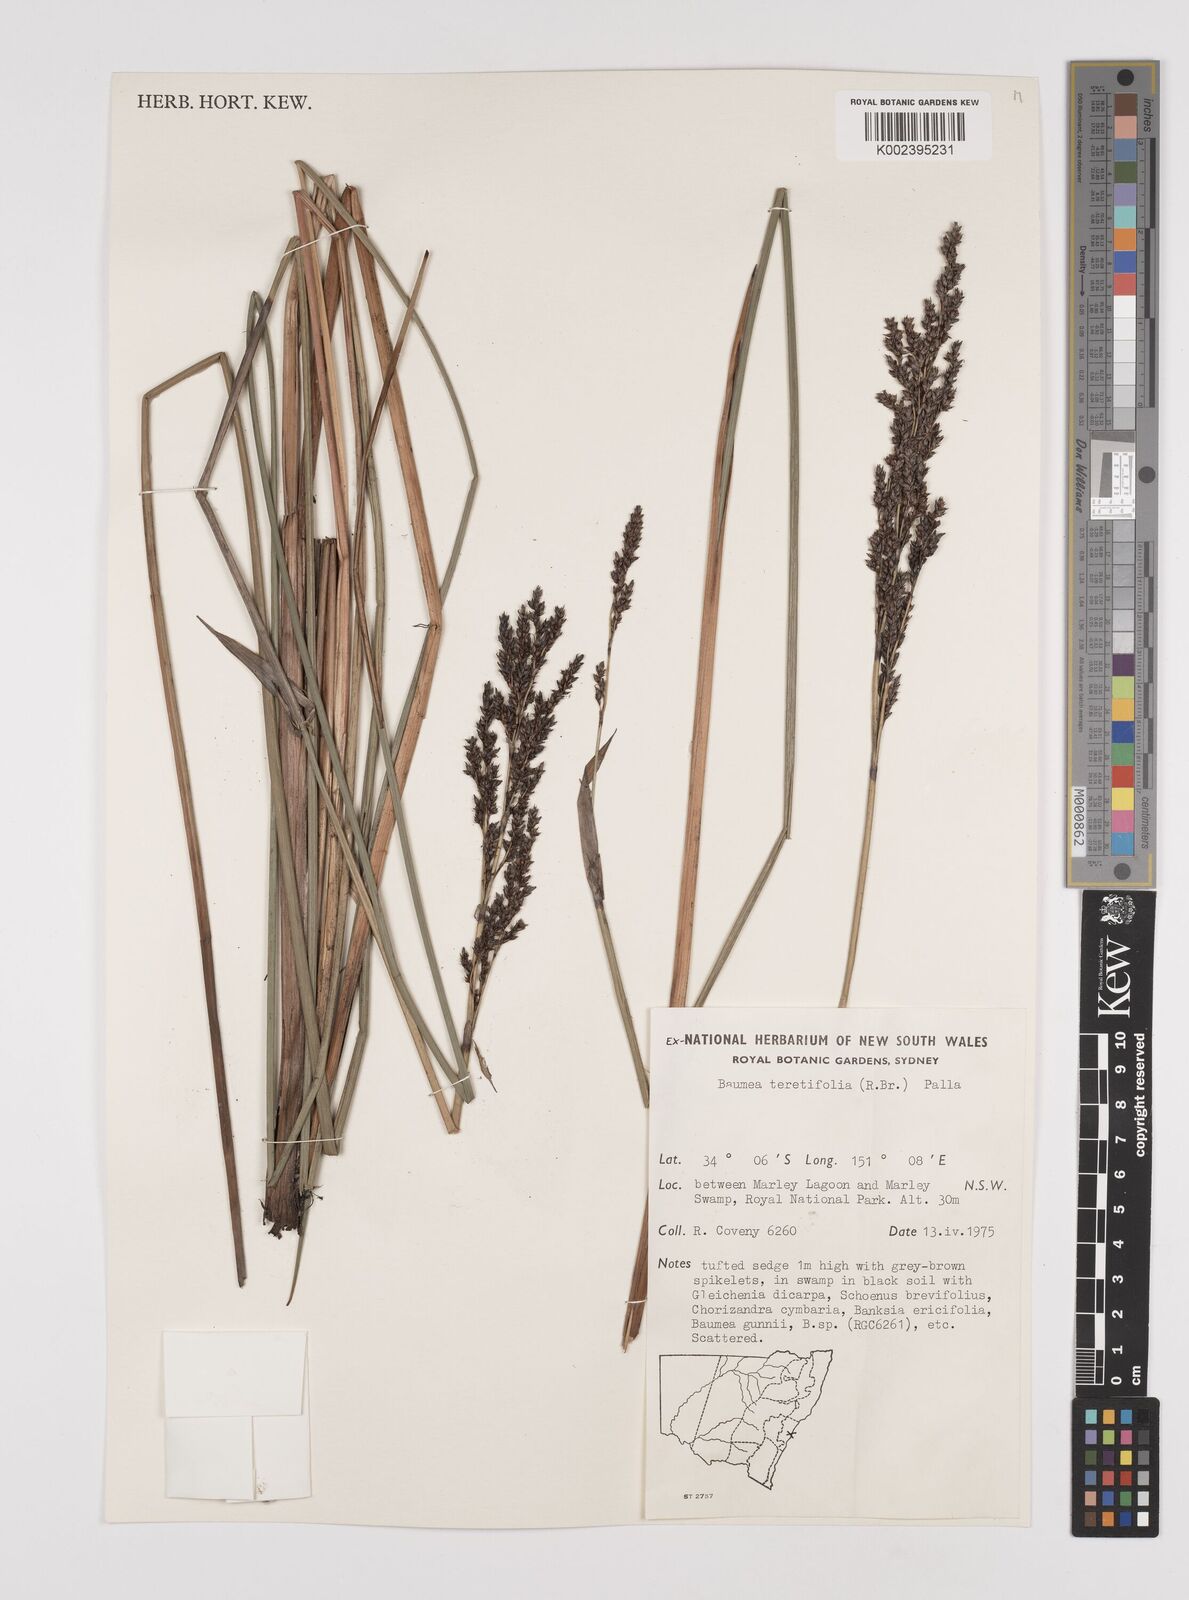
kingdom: Plantae
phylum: Tracheophyta
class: Liliopsida
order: Poales
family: Cyperaceae
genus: Machaerina
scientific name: Machaerina teretifolia
